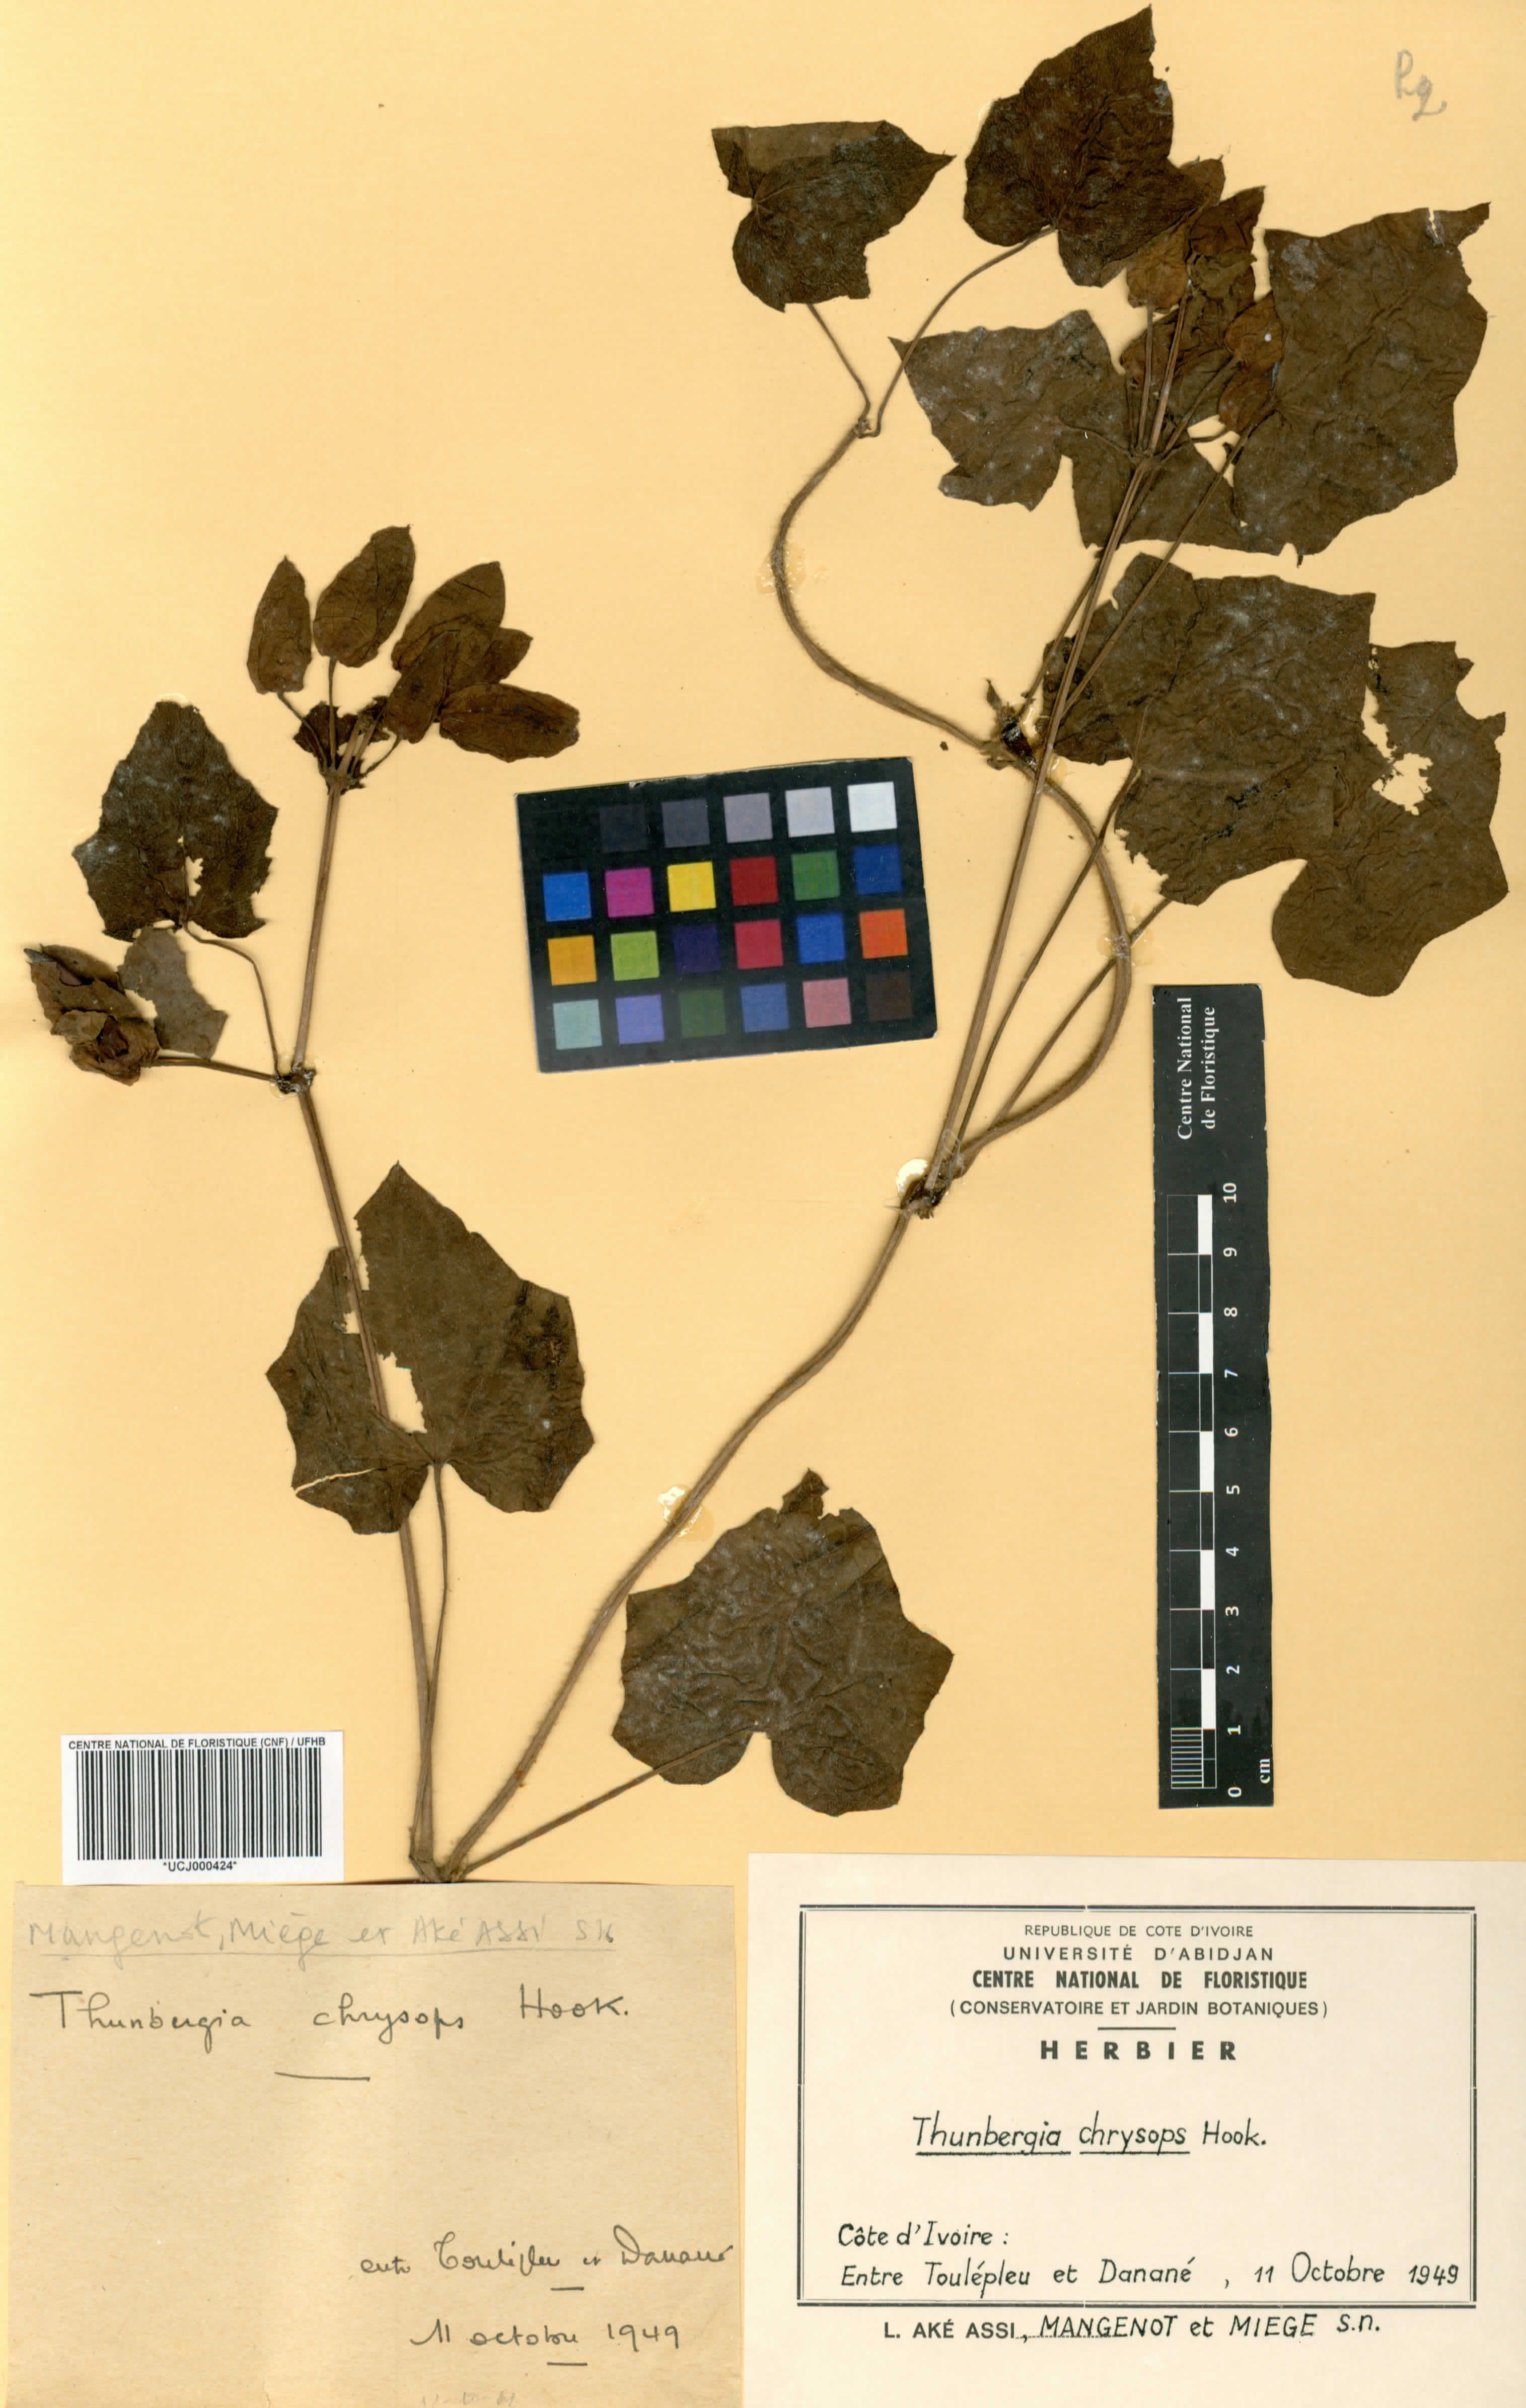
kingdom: Plantae
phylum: Tracheophyta
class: Magnoliopsida
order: Lamiales
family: Acanthaceae
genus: Thunbergia
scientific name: Thunbergia chrysops
